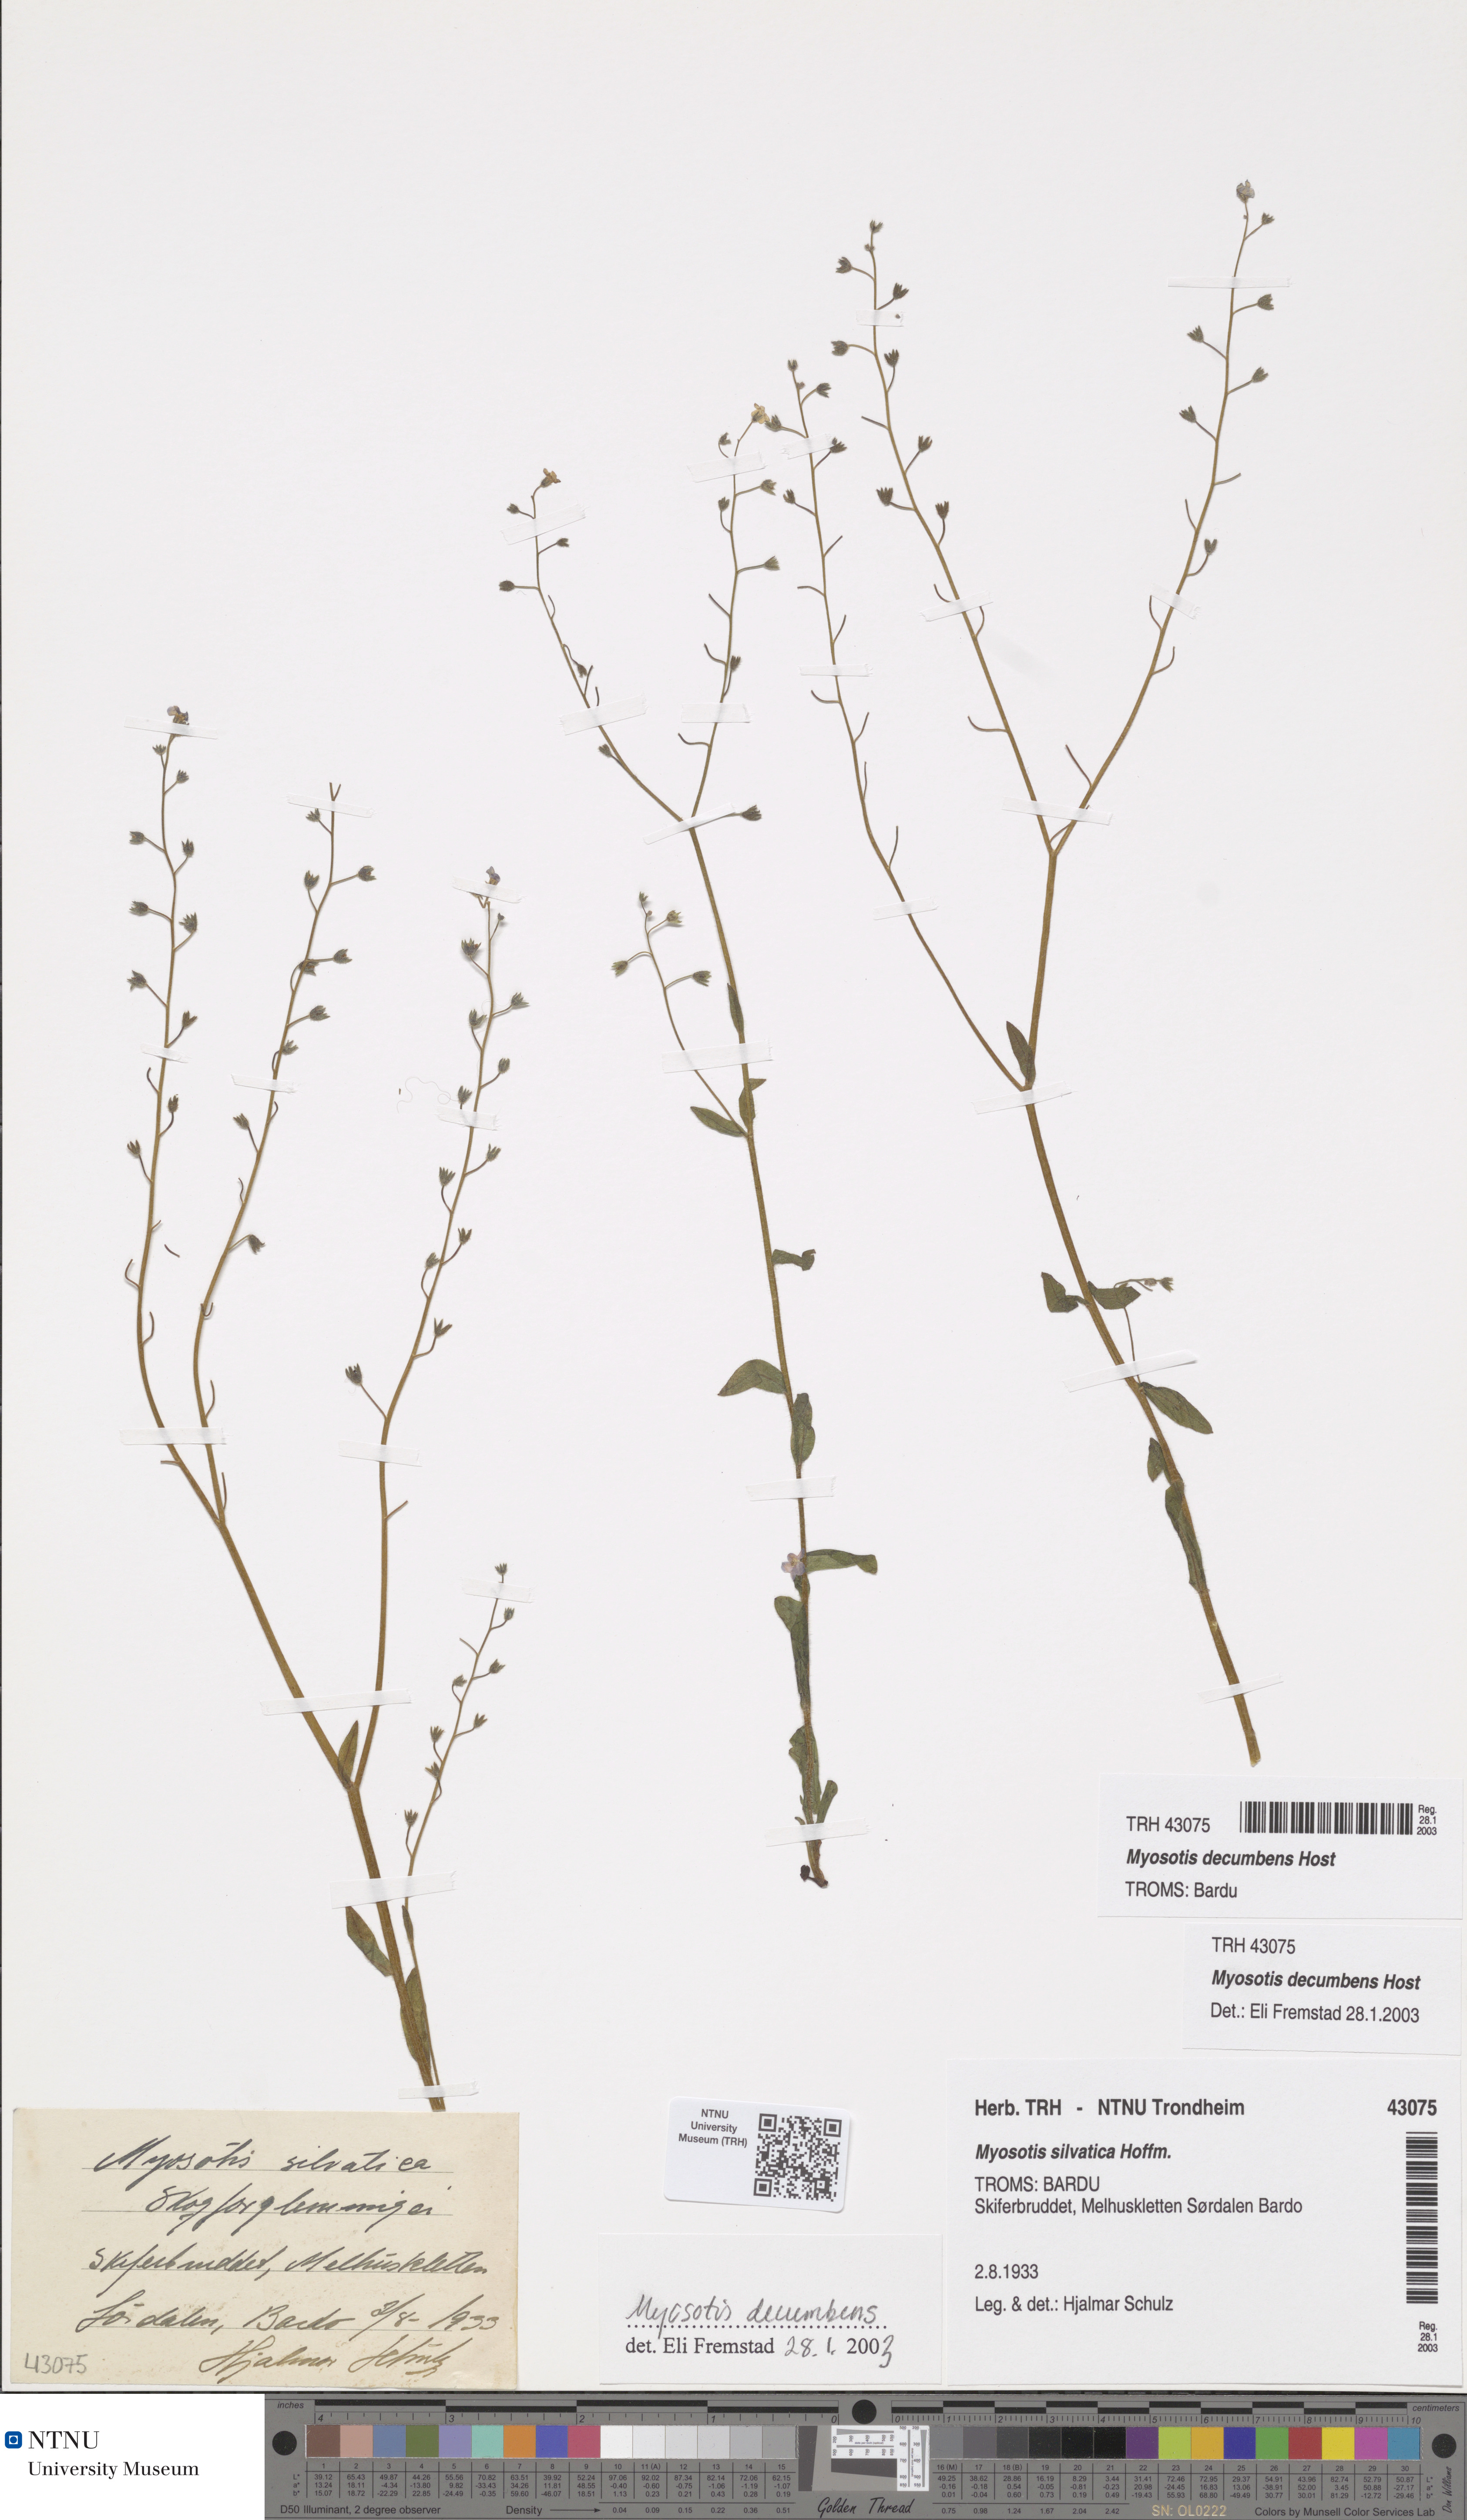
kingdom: Plantae
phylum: Tracheophyta
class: Magnoliopsida
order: Boraginales
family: Boraginaceae
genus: Myosotis
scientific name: Myosotis decumbens
